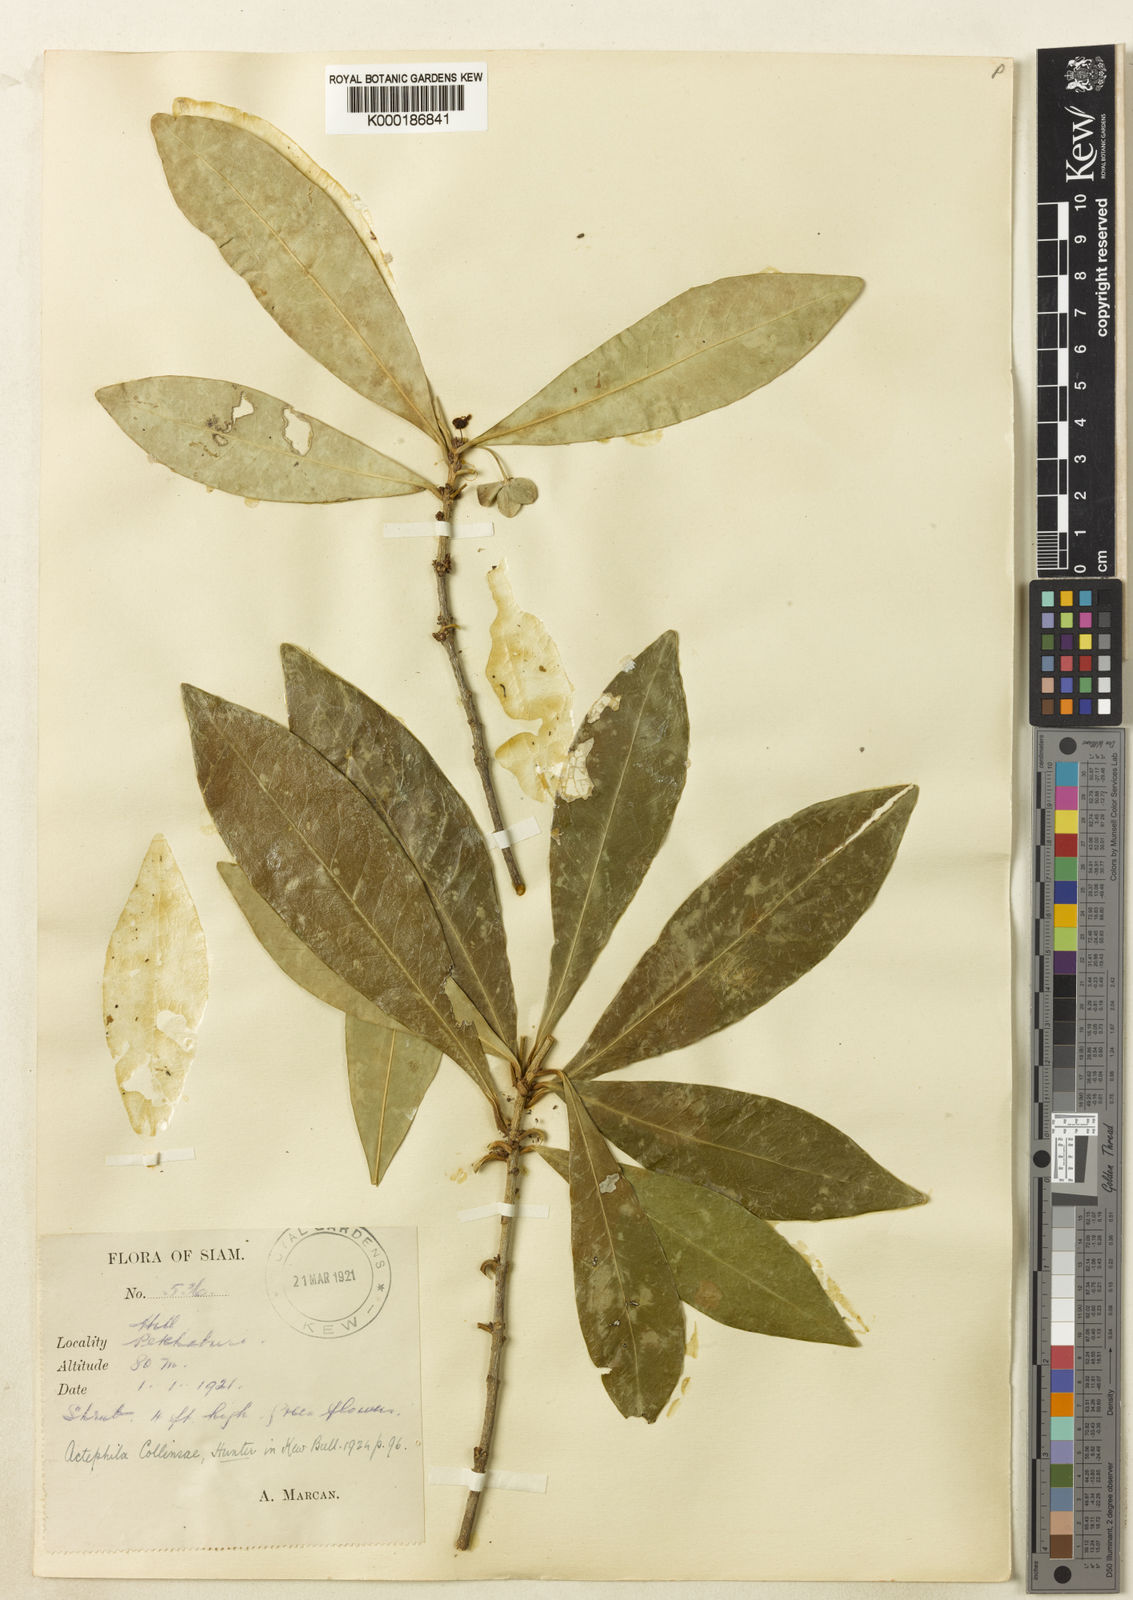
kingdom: Plantae
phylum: Tracheophyta
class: Magnoliopsida
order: Malpighiales
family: Phyllanthaceae
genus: Actephila
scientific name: Actephila collinsiae
